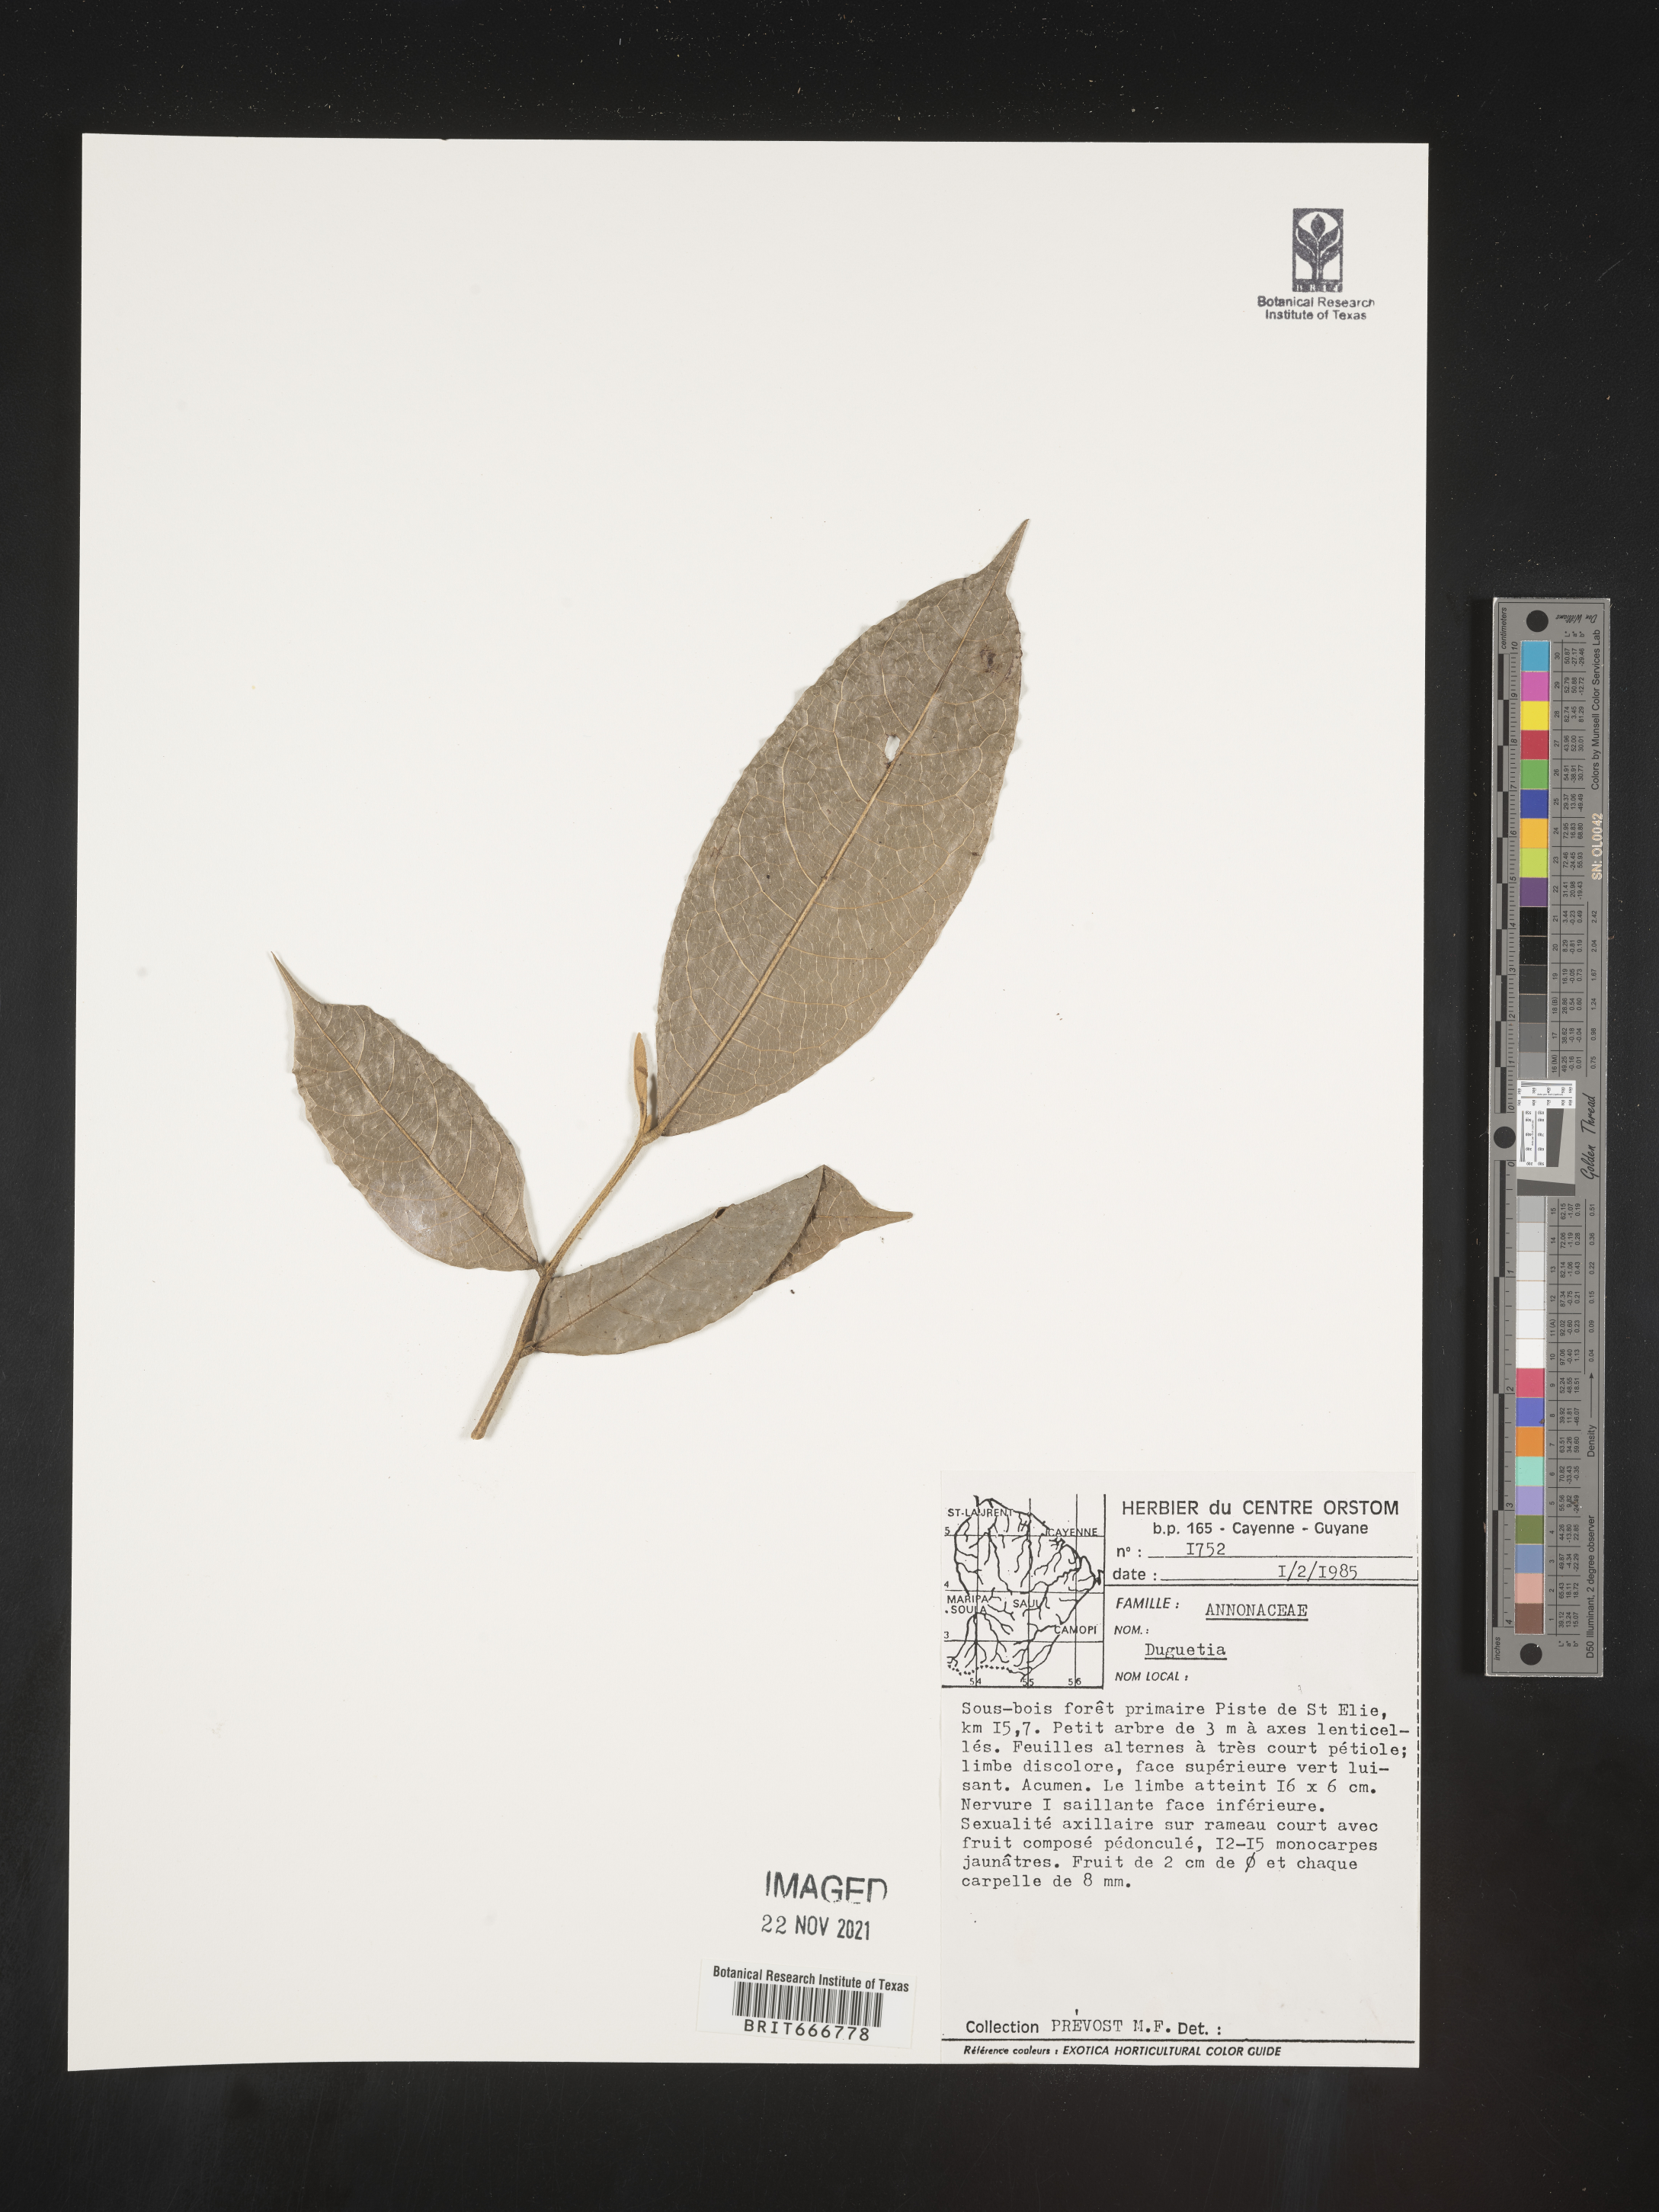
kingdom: Plantae
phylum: Tracheophyta
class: Magnoliopsida
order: Magnoliales
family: Annonaceae
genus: Duguetia
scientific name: Duguetia
